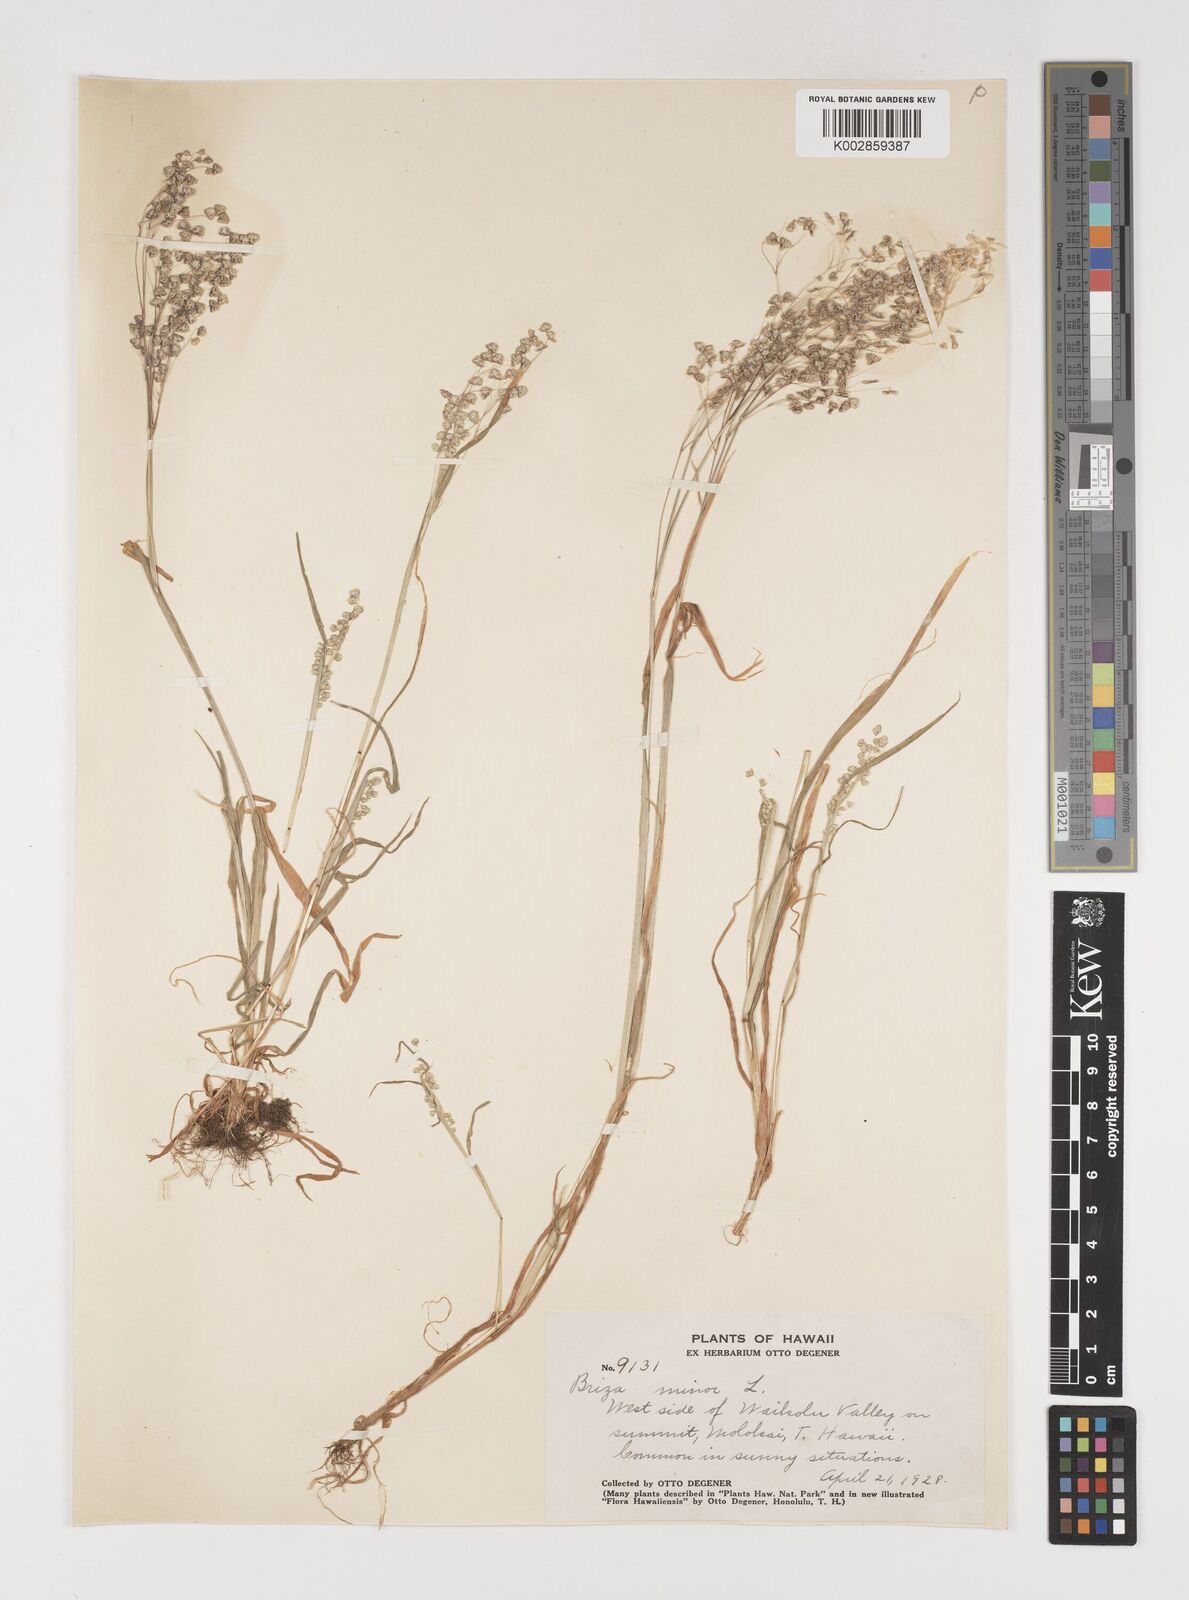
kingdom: Plantae
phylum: Tracheophyta
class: Liliopsida
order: Poales
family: Poaceae
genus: Briza
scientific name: Briza minor
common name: Lesser quaking-grass
